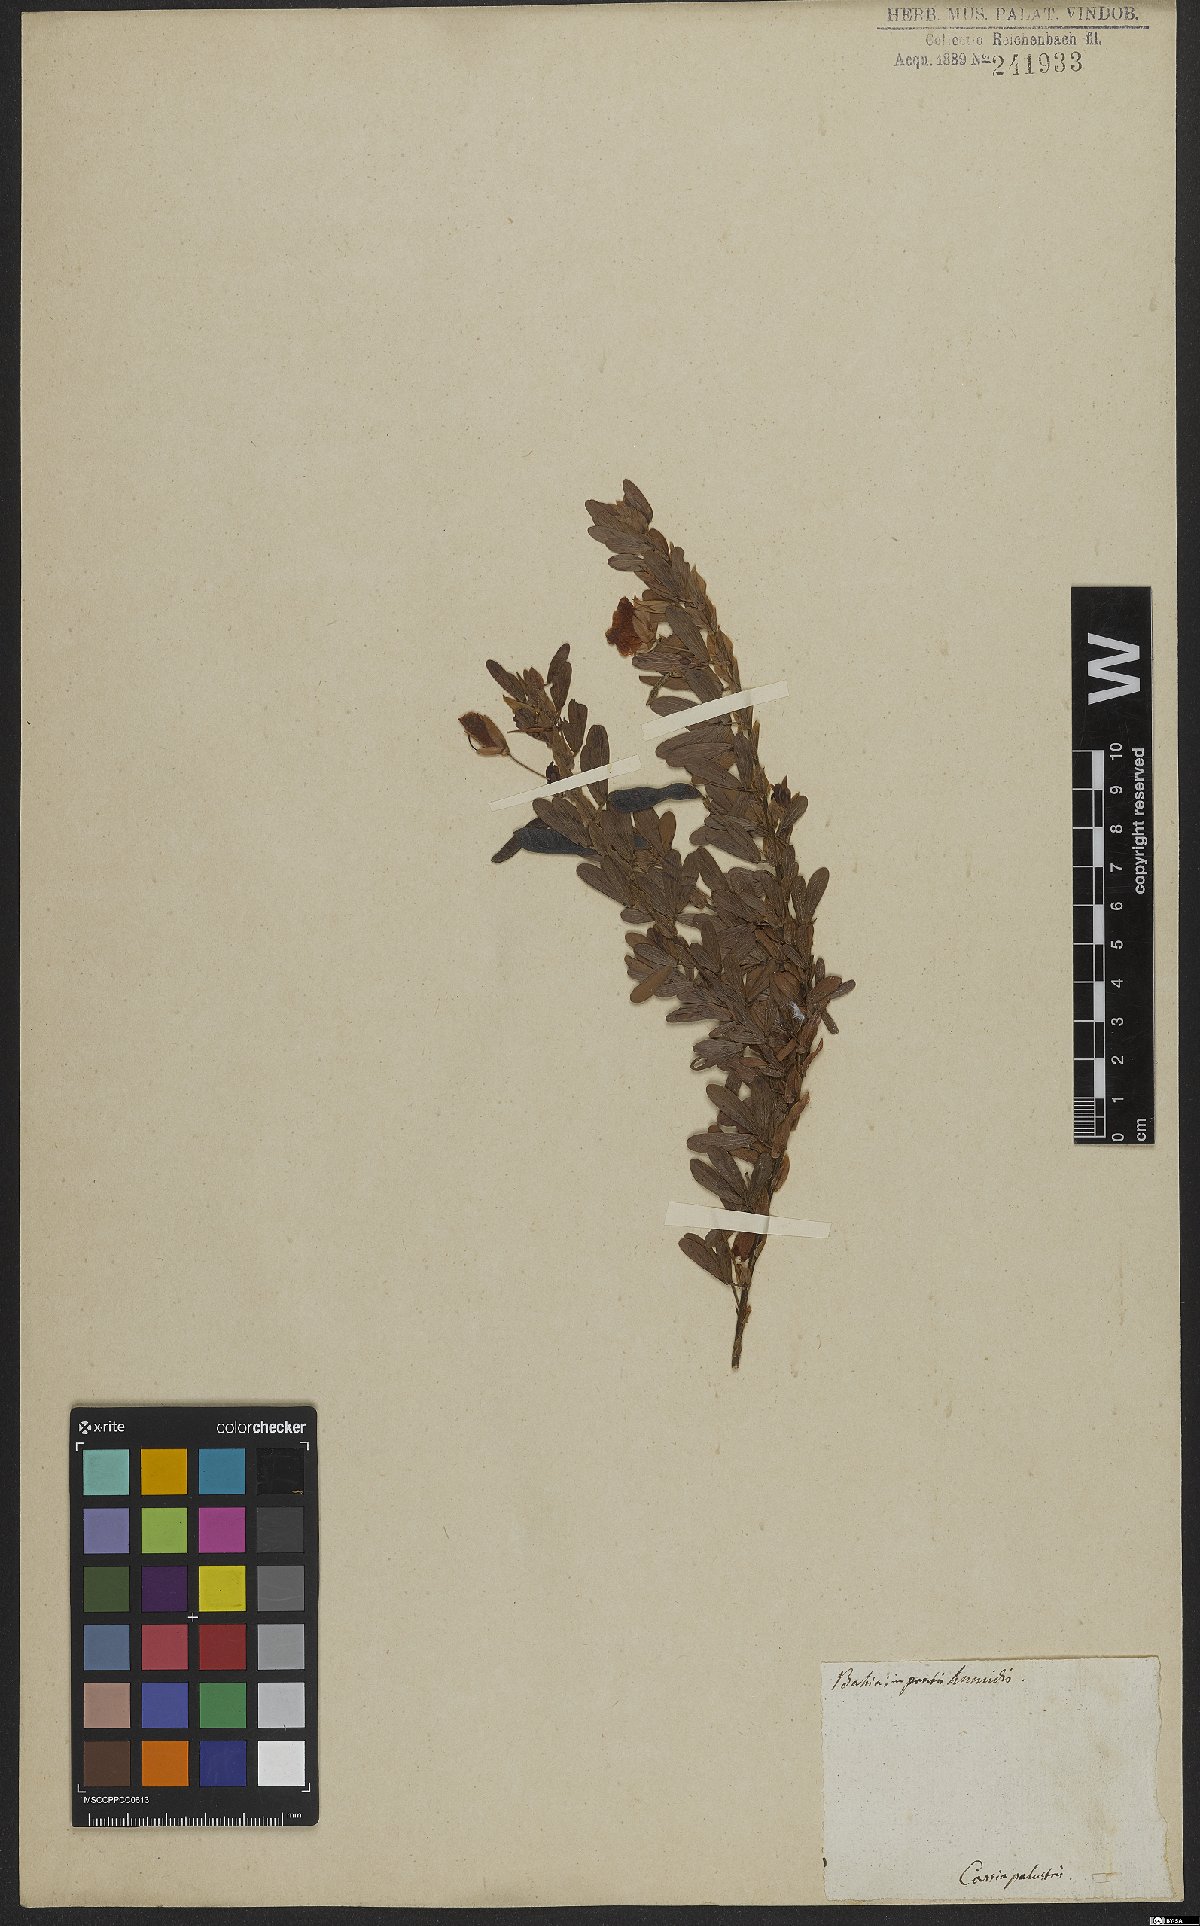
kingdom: Plantae
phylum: Tracheophyta
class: Magnoliopsida
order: Fabales
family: Fabaceae
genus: Cassia
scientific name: Cassia
